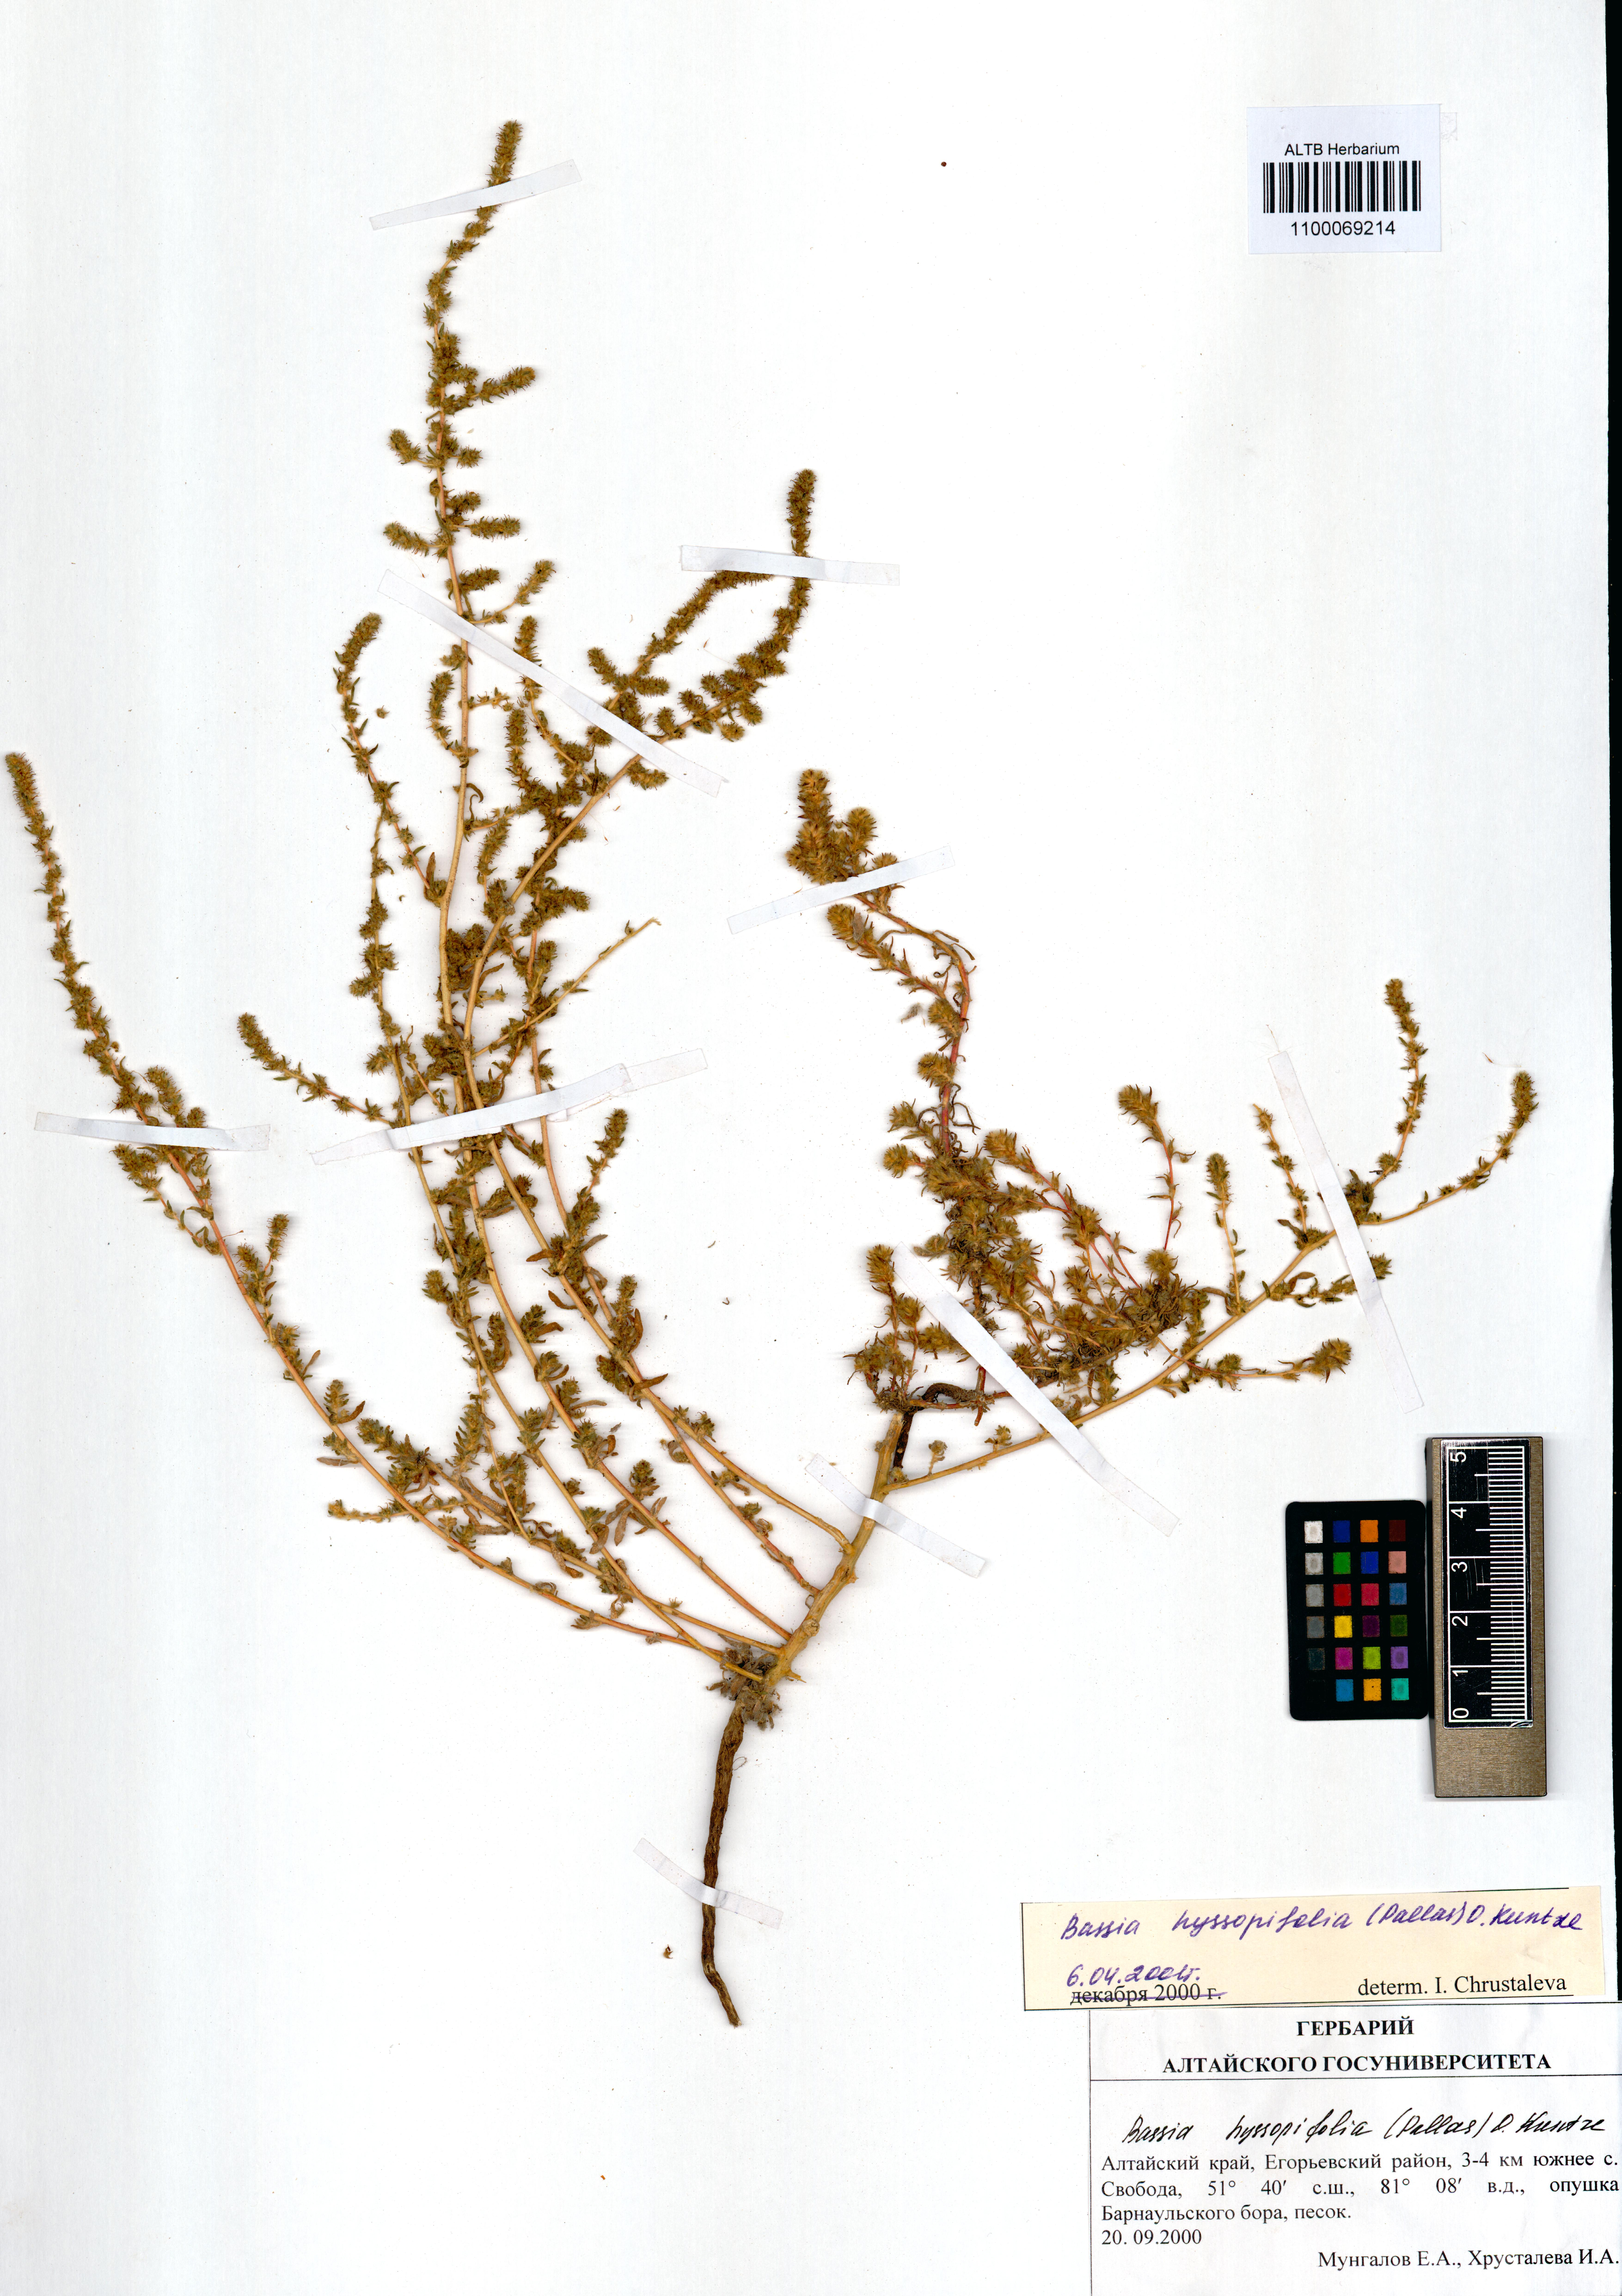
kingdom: Plantae
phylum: Tracheophyta
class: Magnoliopsida
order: Caryophyllales
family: Amaranthaceae
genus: Bassia
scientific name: Bassia hyssopifolia
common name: Fivehorn smotherweed
